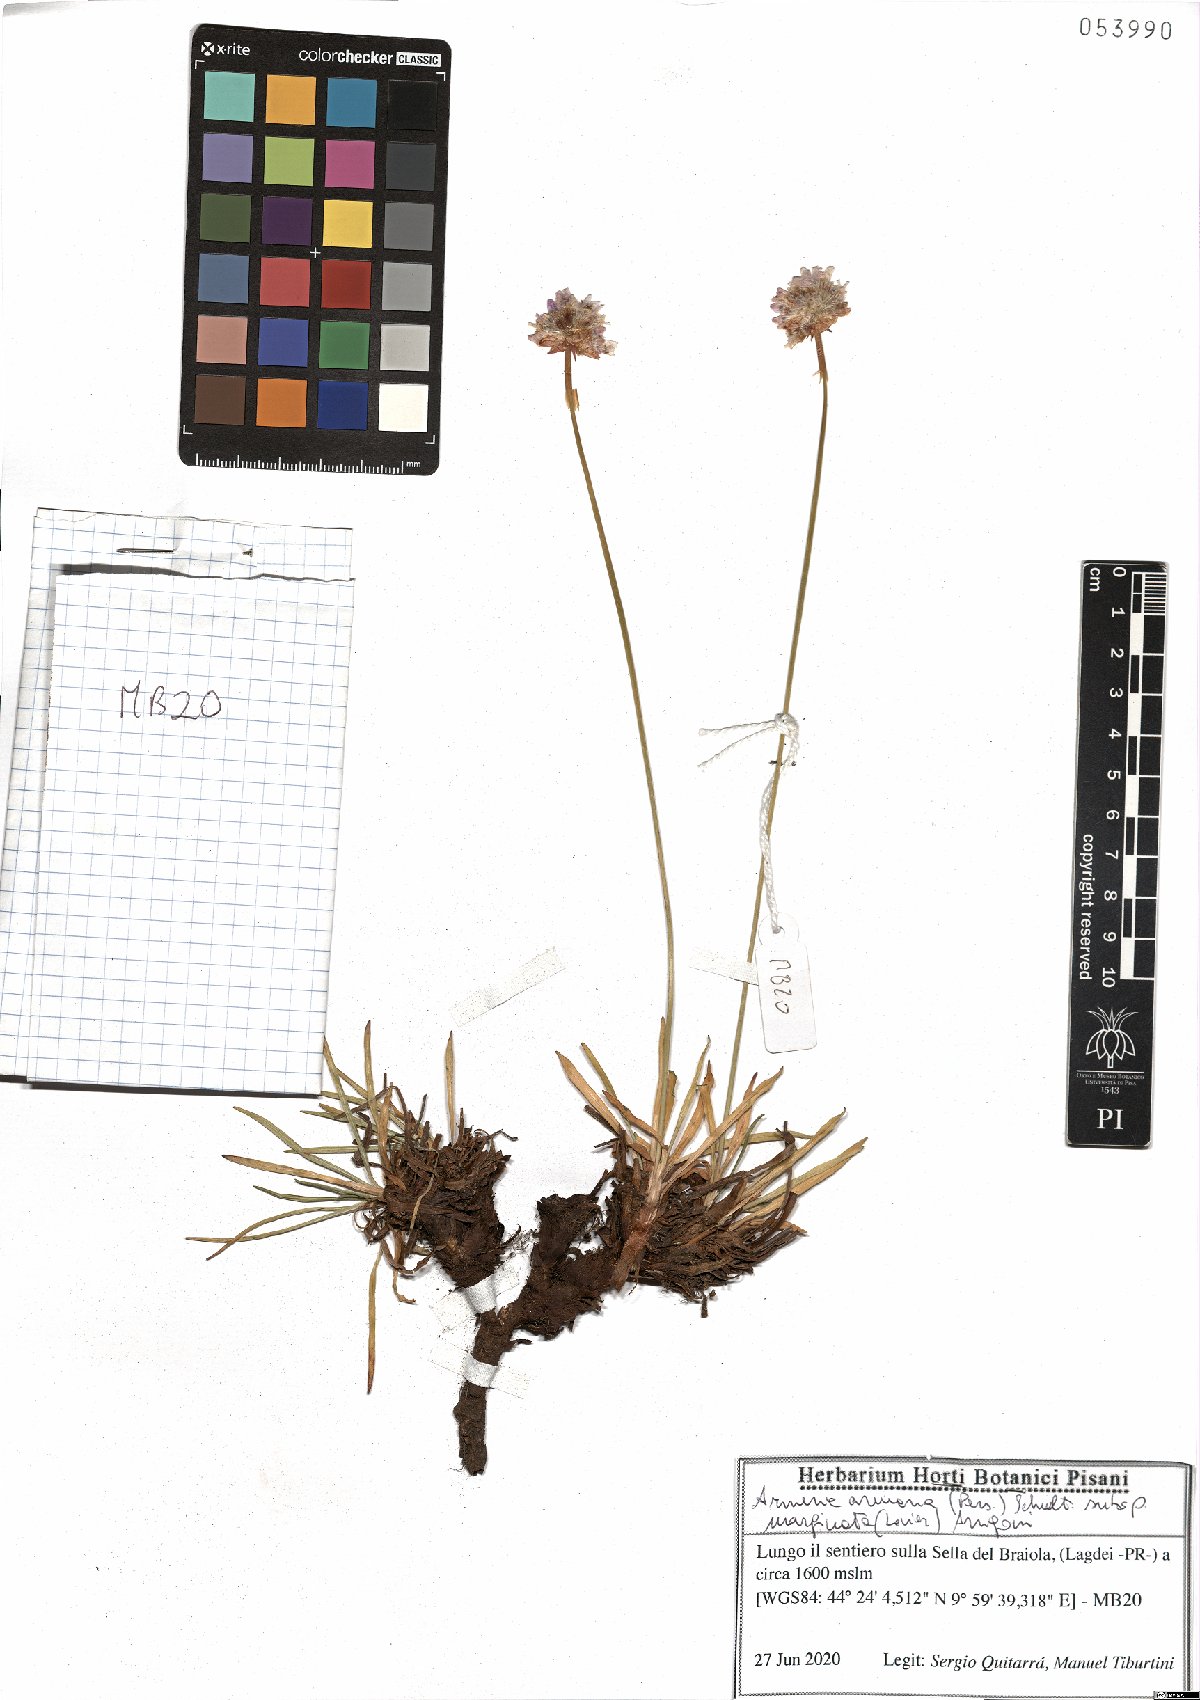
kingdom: Plantae
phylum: Tracheophyta
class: Magnoliopsida
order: Caryophyllales
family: Plumbaginaceae
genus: Armeria
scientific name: Armeria arenaria
